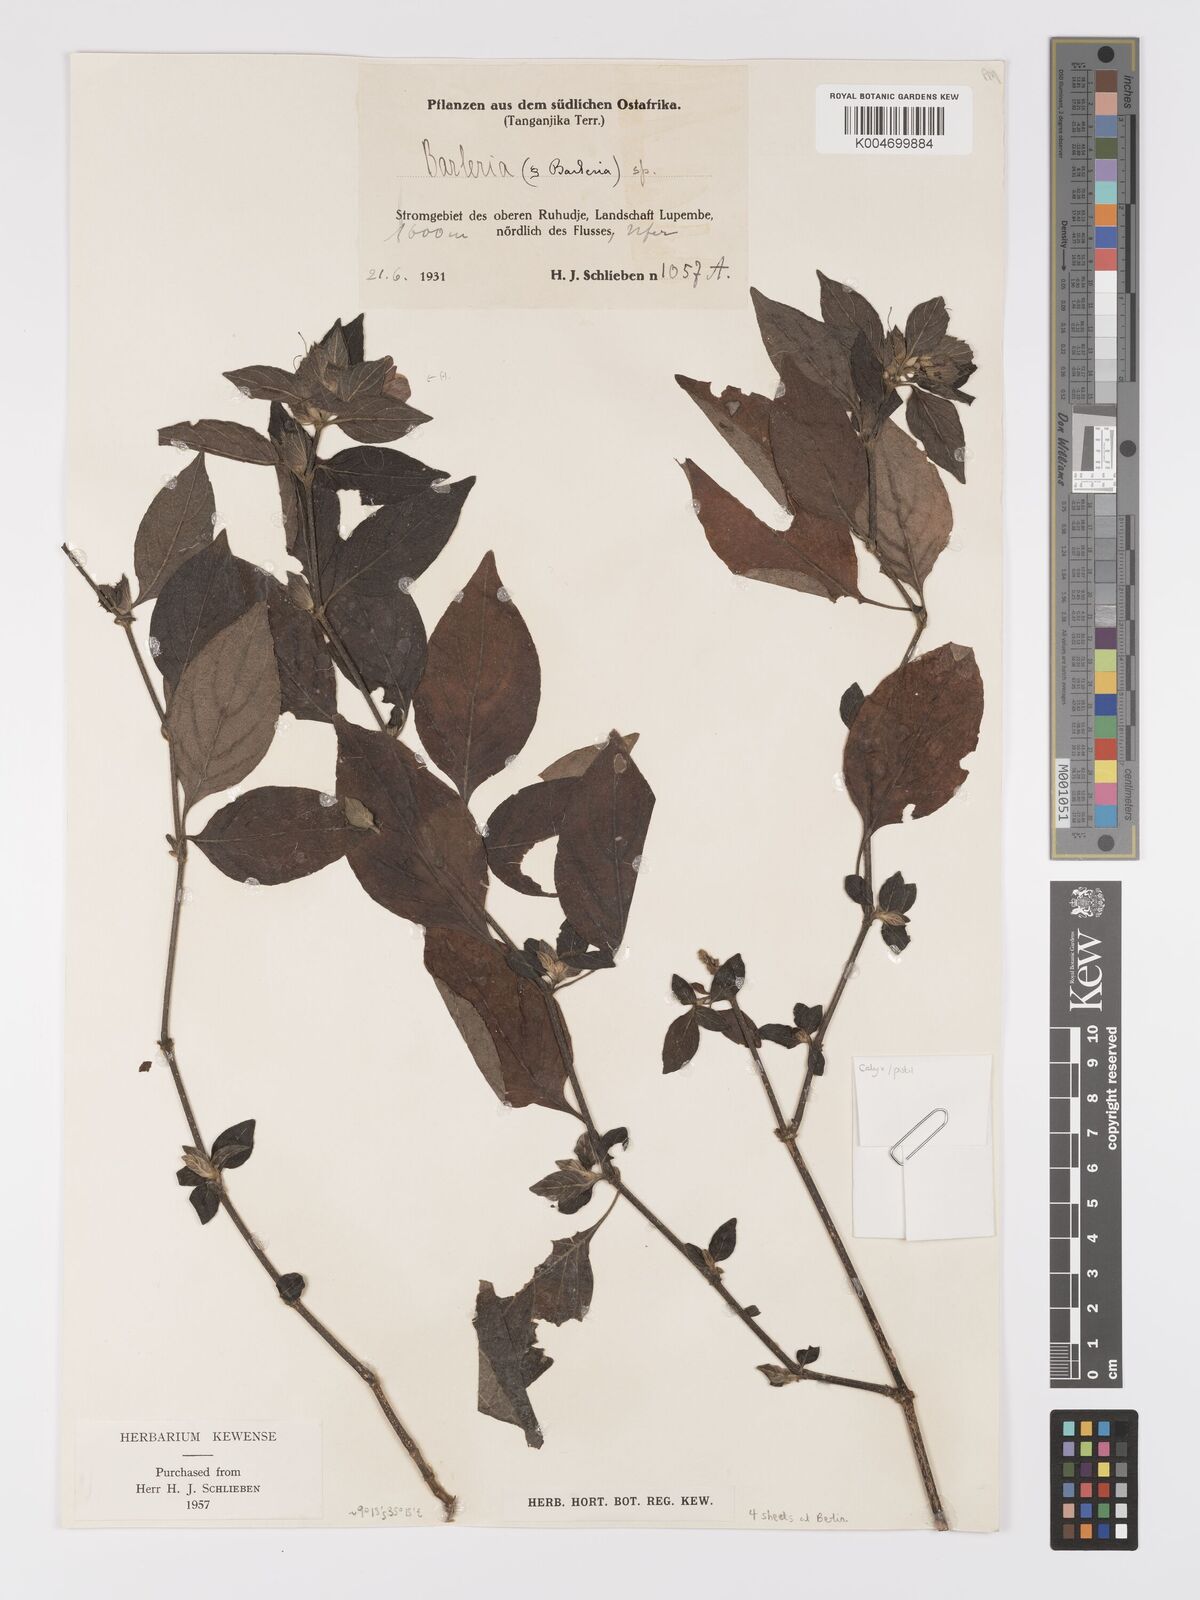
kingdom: Plantae
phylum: Tracheophyta
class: Magnoliopsida
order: Lamiales
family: Acanthaceae
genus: Barleria
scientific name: Barleria ventricosa
